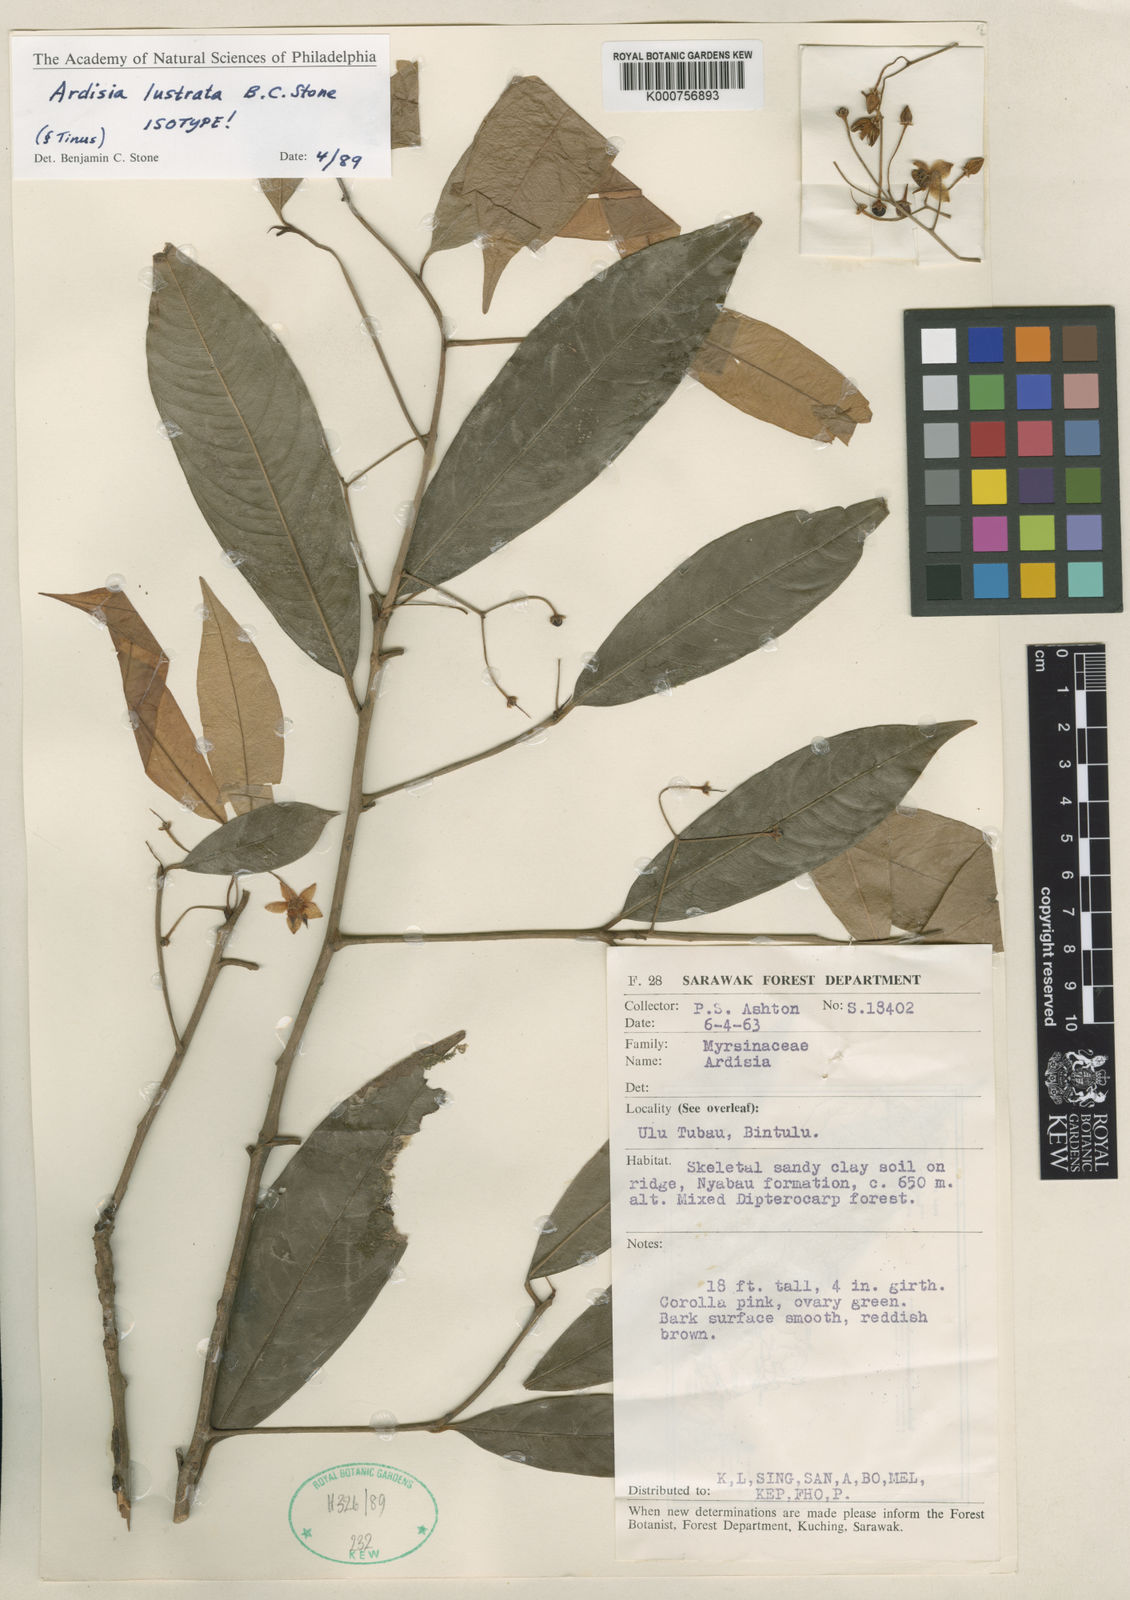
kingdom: Plantae
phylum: Tracheophyta
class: Magnoliopsida
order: Ericales
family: Primulaceae
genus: Ardisia
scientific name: Ardisia
